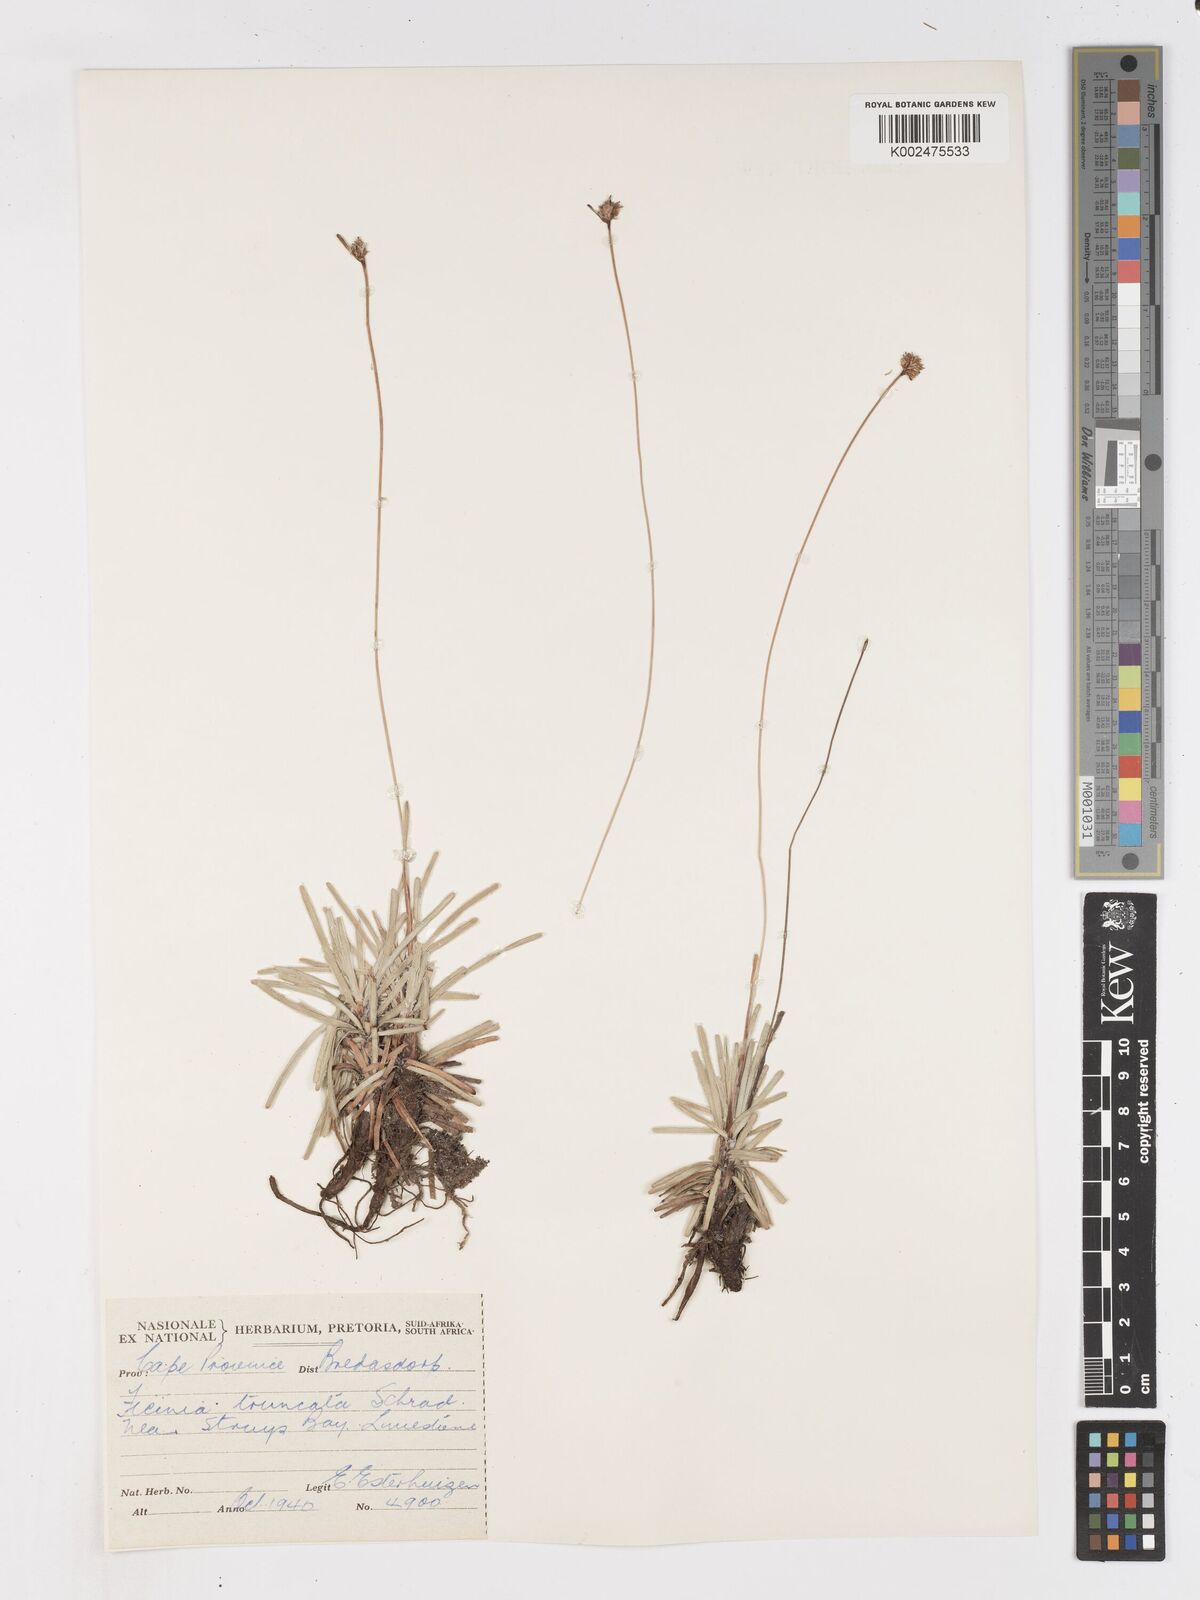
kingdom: Plantae
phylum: Tracheophyta
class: Liliopsida
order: Poales
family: Cyperaceae
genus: Ficinia
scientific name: Ficinia truncata
